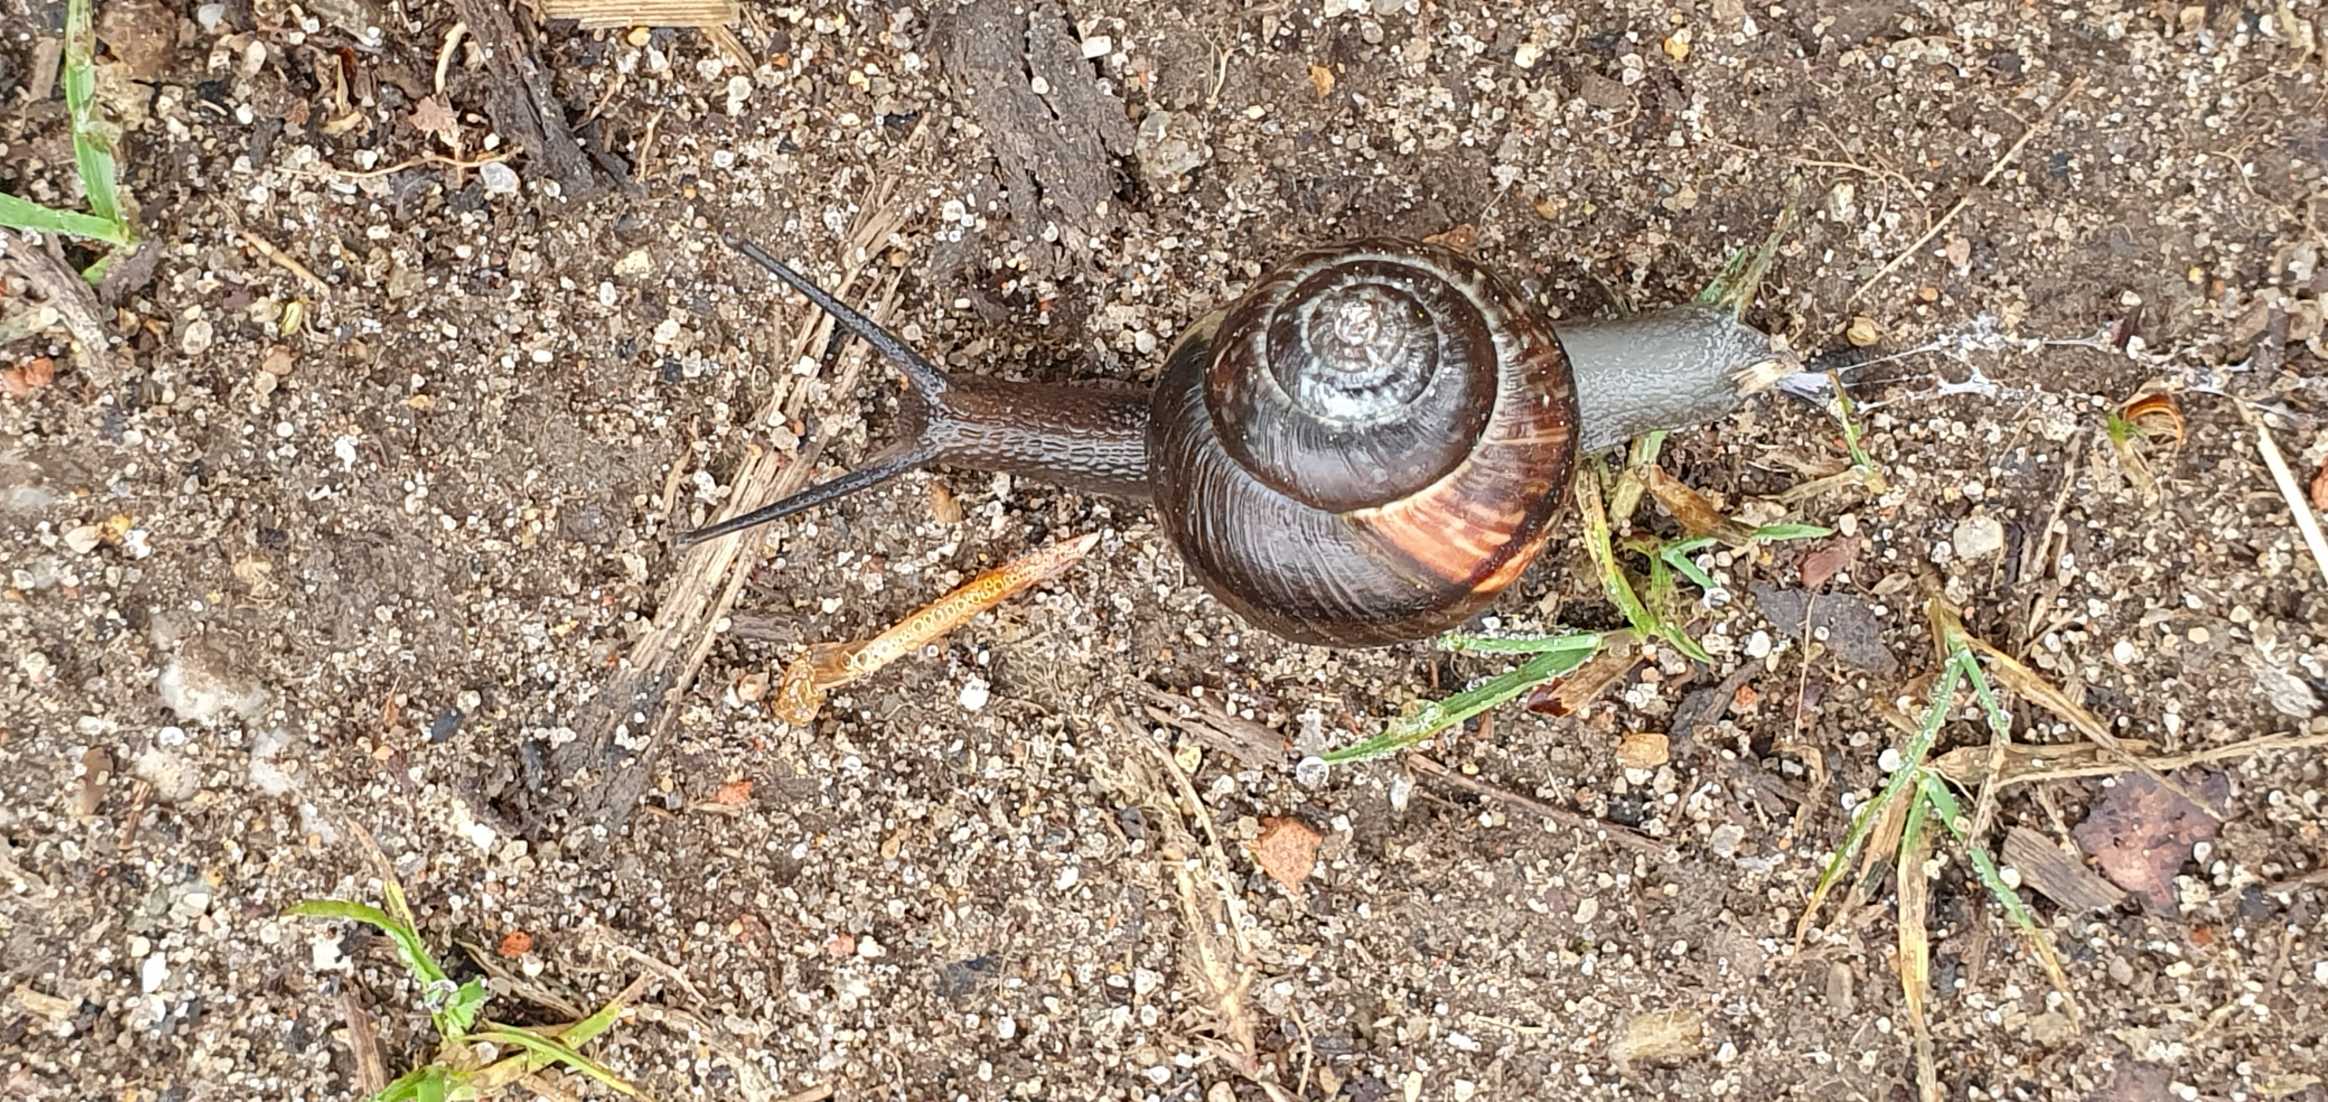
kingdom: Animalia
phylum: Mollusca
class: Gastropoda
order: Stylommatophora
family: Helicidae
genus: Arianta
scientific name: Arianta arbustorum
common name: Kratsnegl
